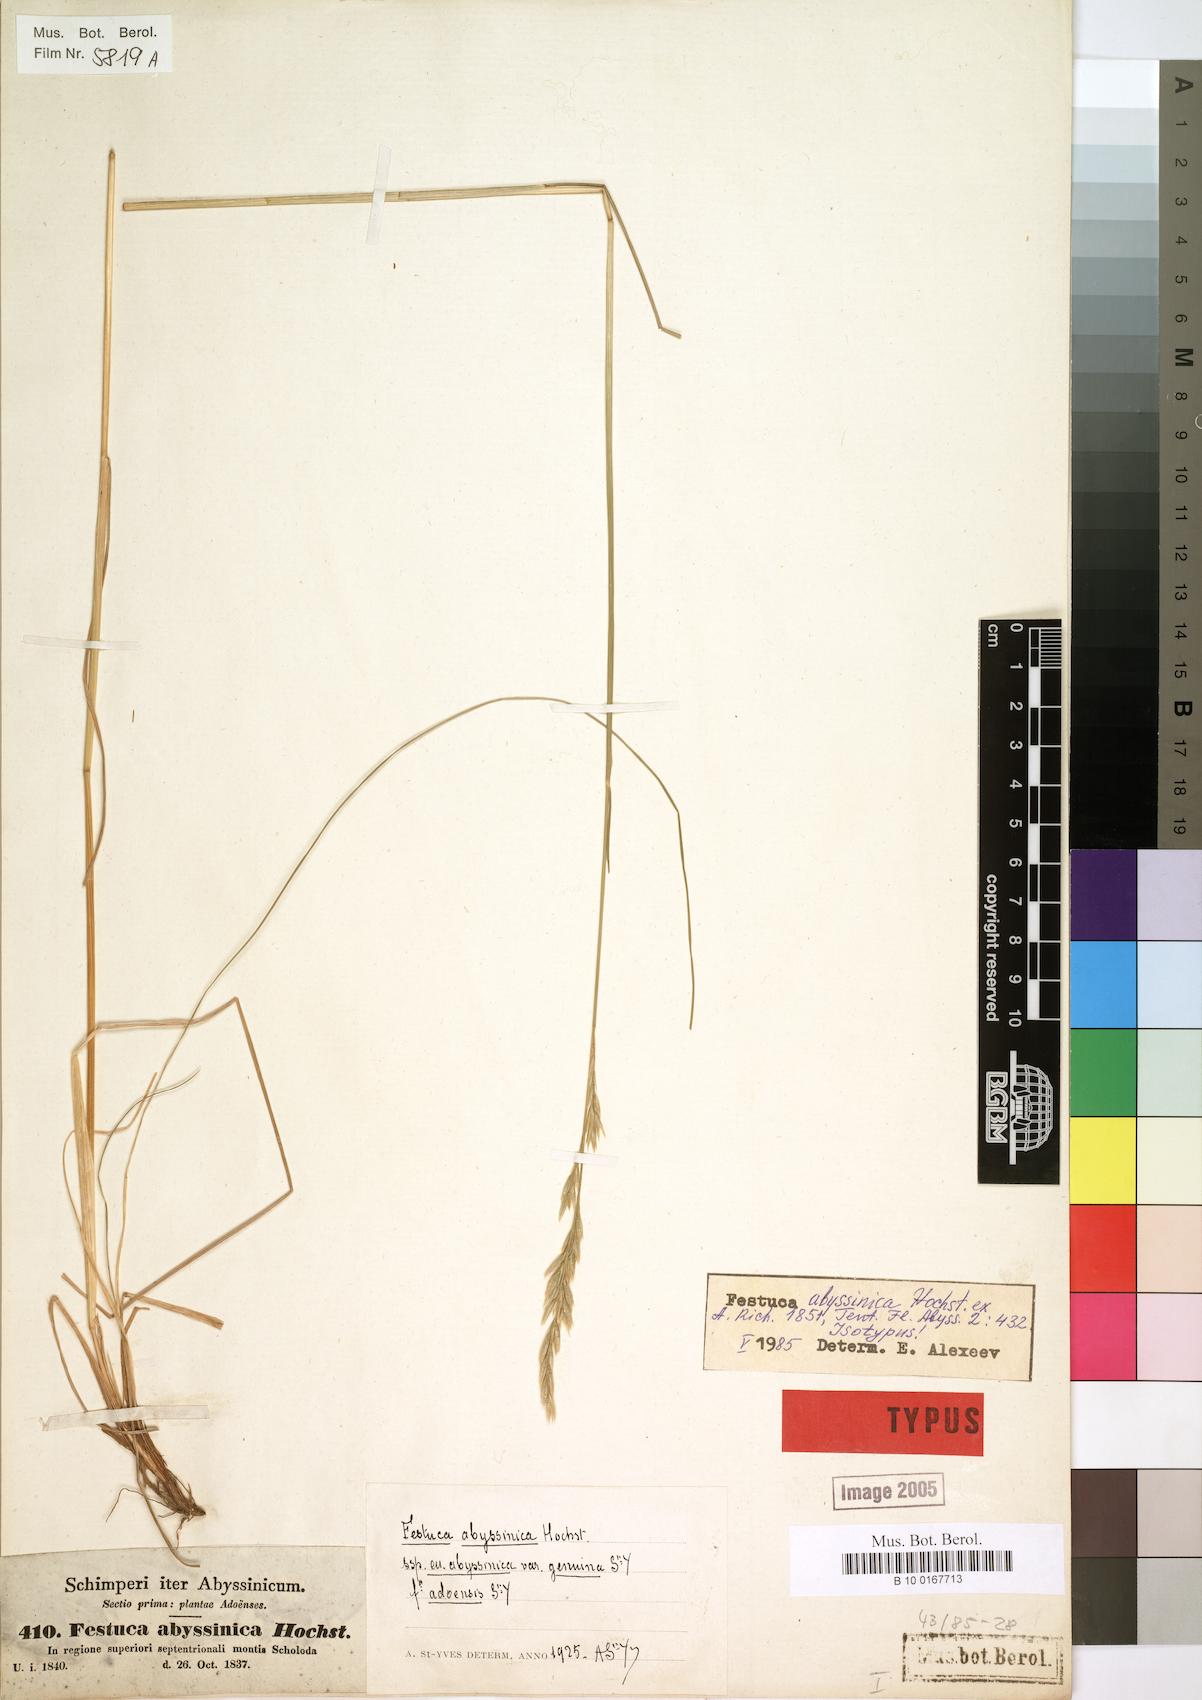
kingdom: Plantae
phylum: Tracheophyta
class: Liliopsida
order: Poales
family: Poaceae
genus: Festuca
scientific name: Festuca abyssinica
